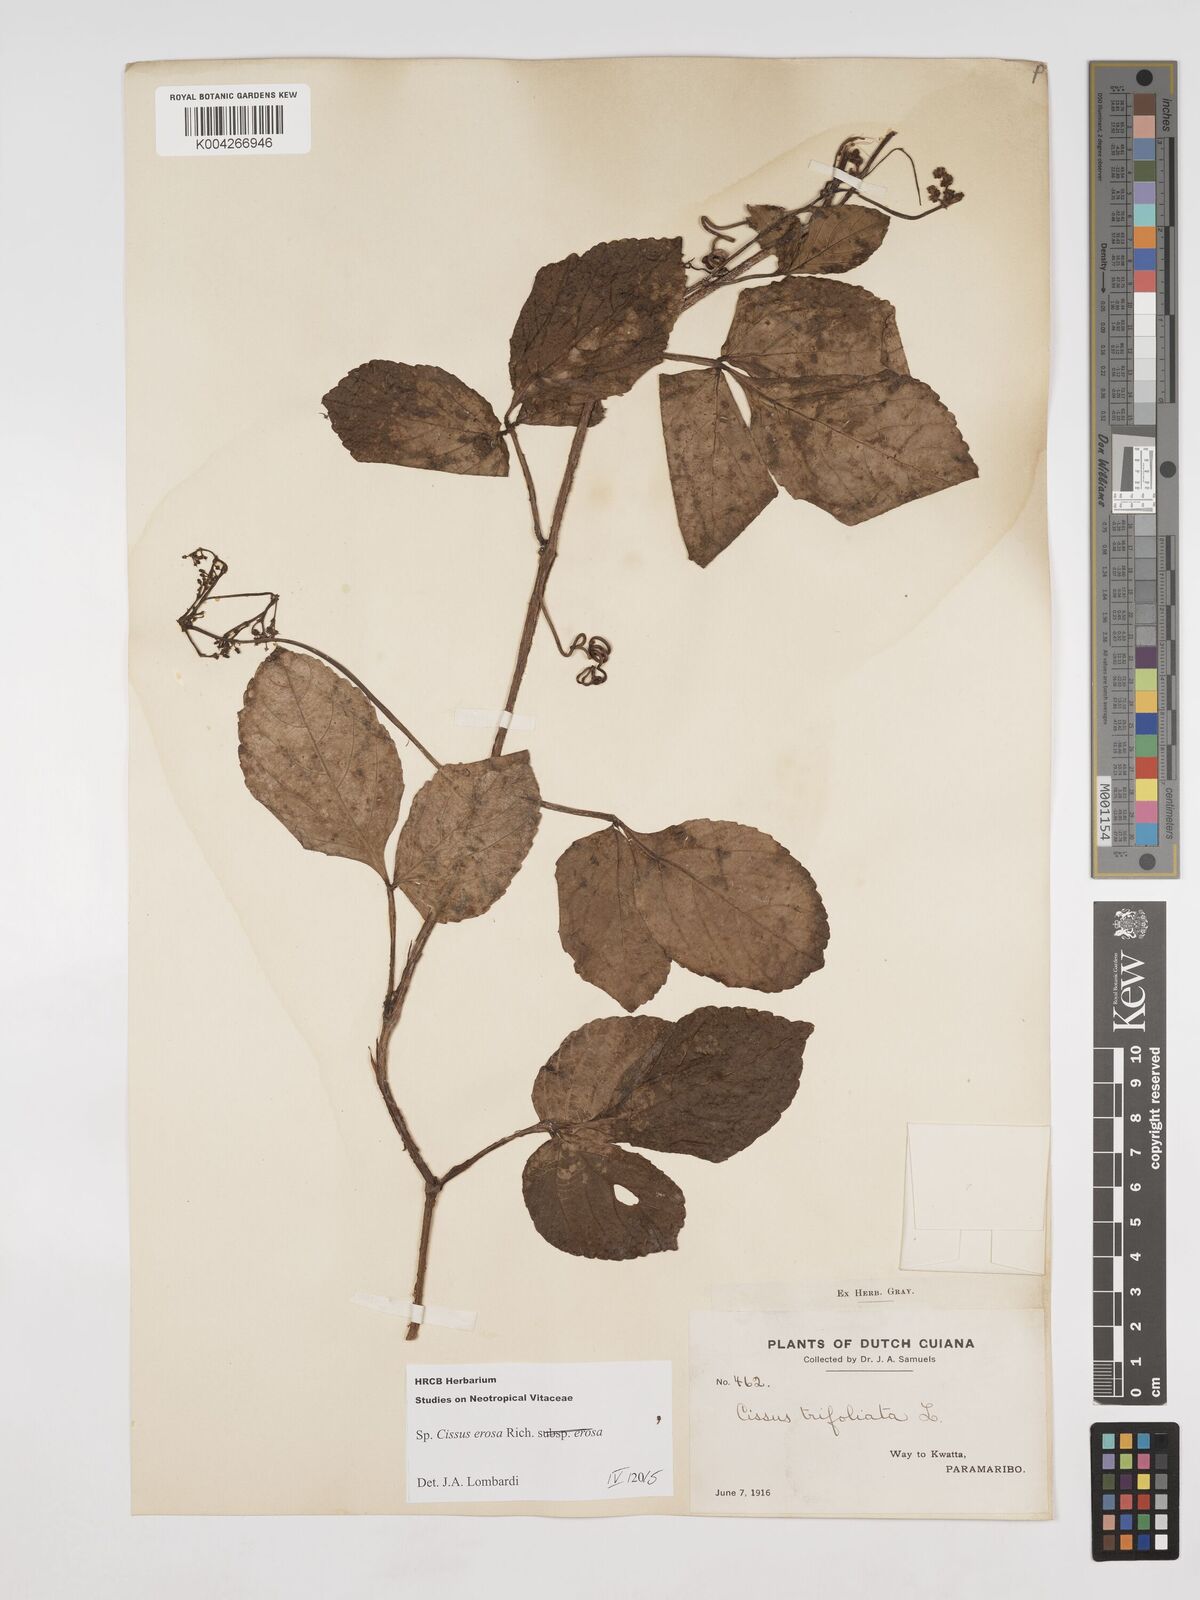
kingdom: Plantae
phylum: Tracheophyta
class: Magnoliopsida
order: Vitales
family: Vitaceae
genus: Cissus
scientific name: Cissus erosa
